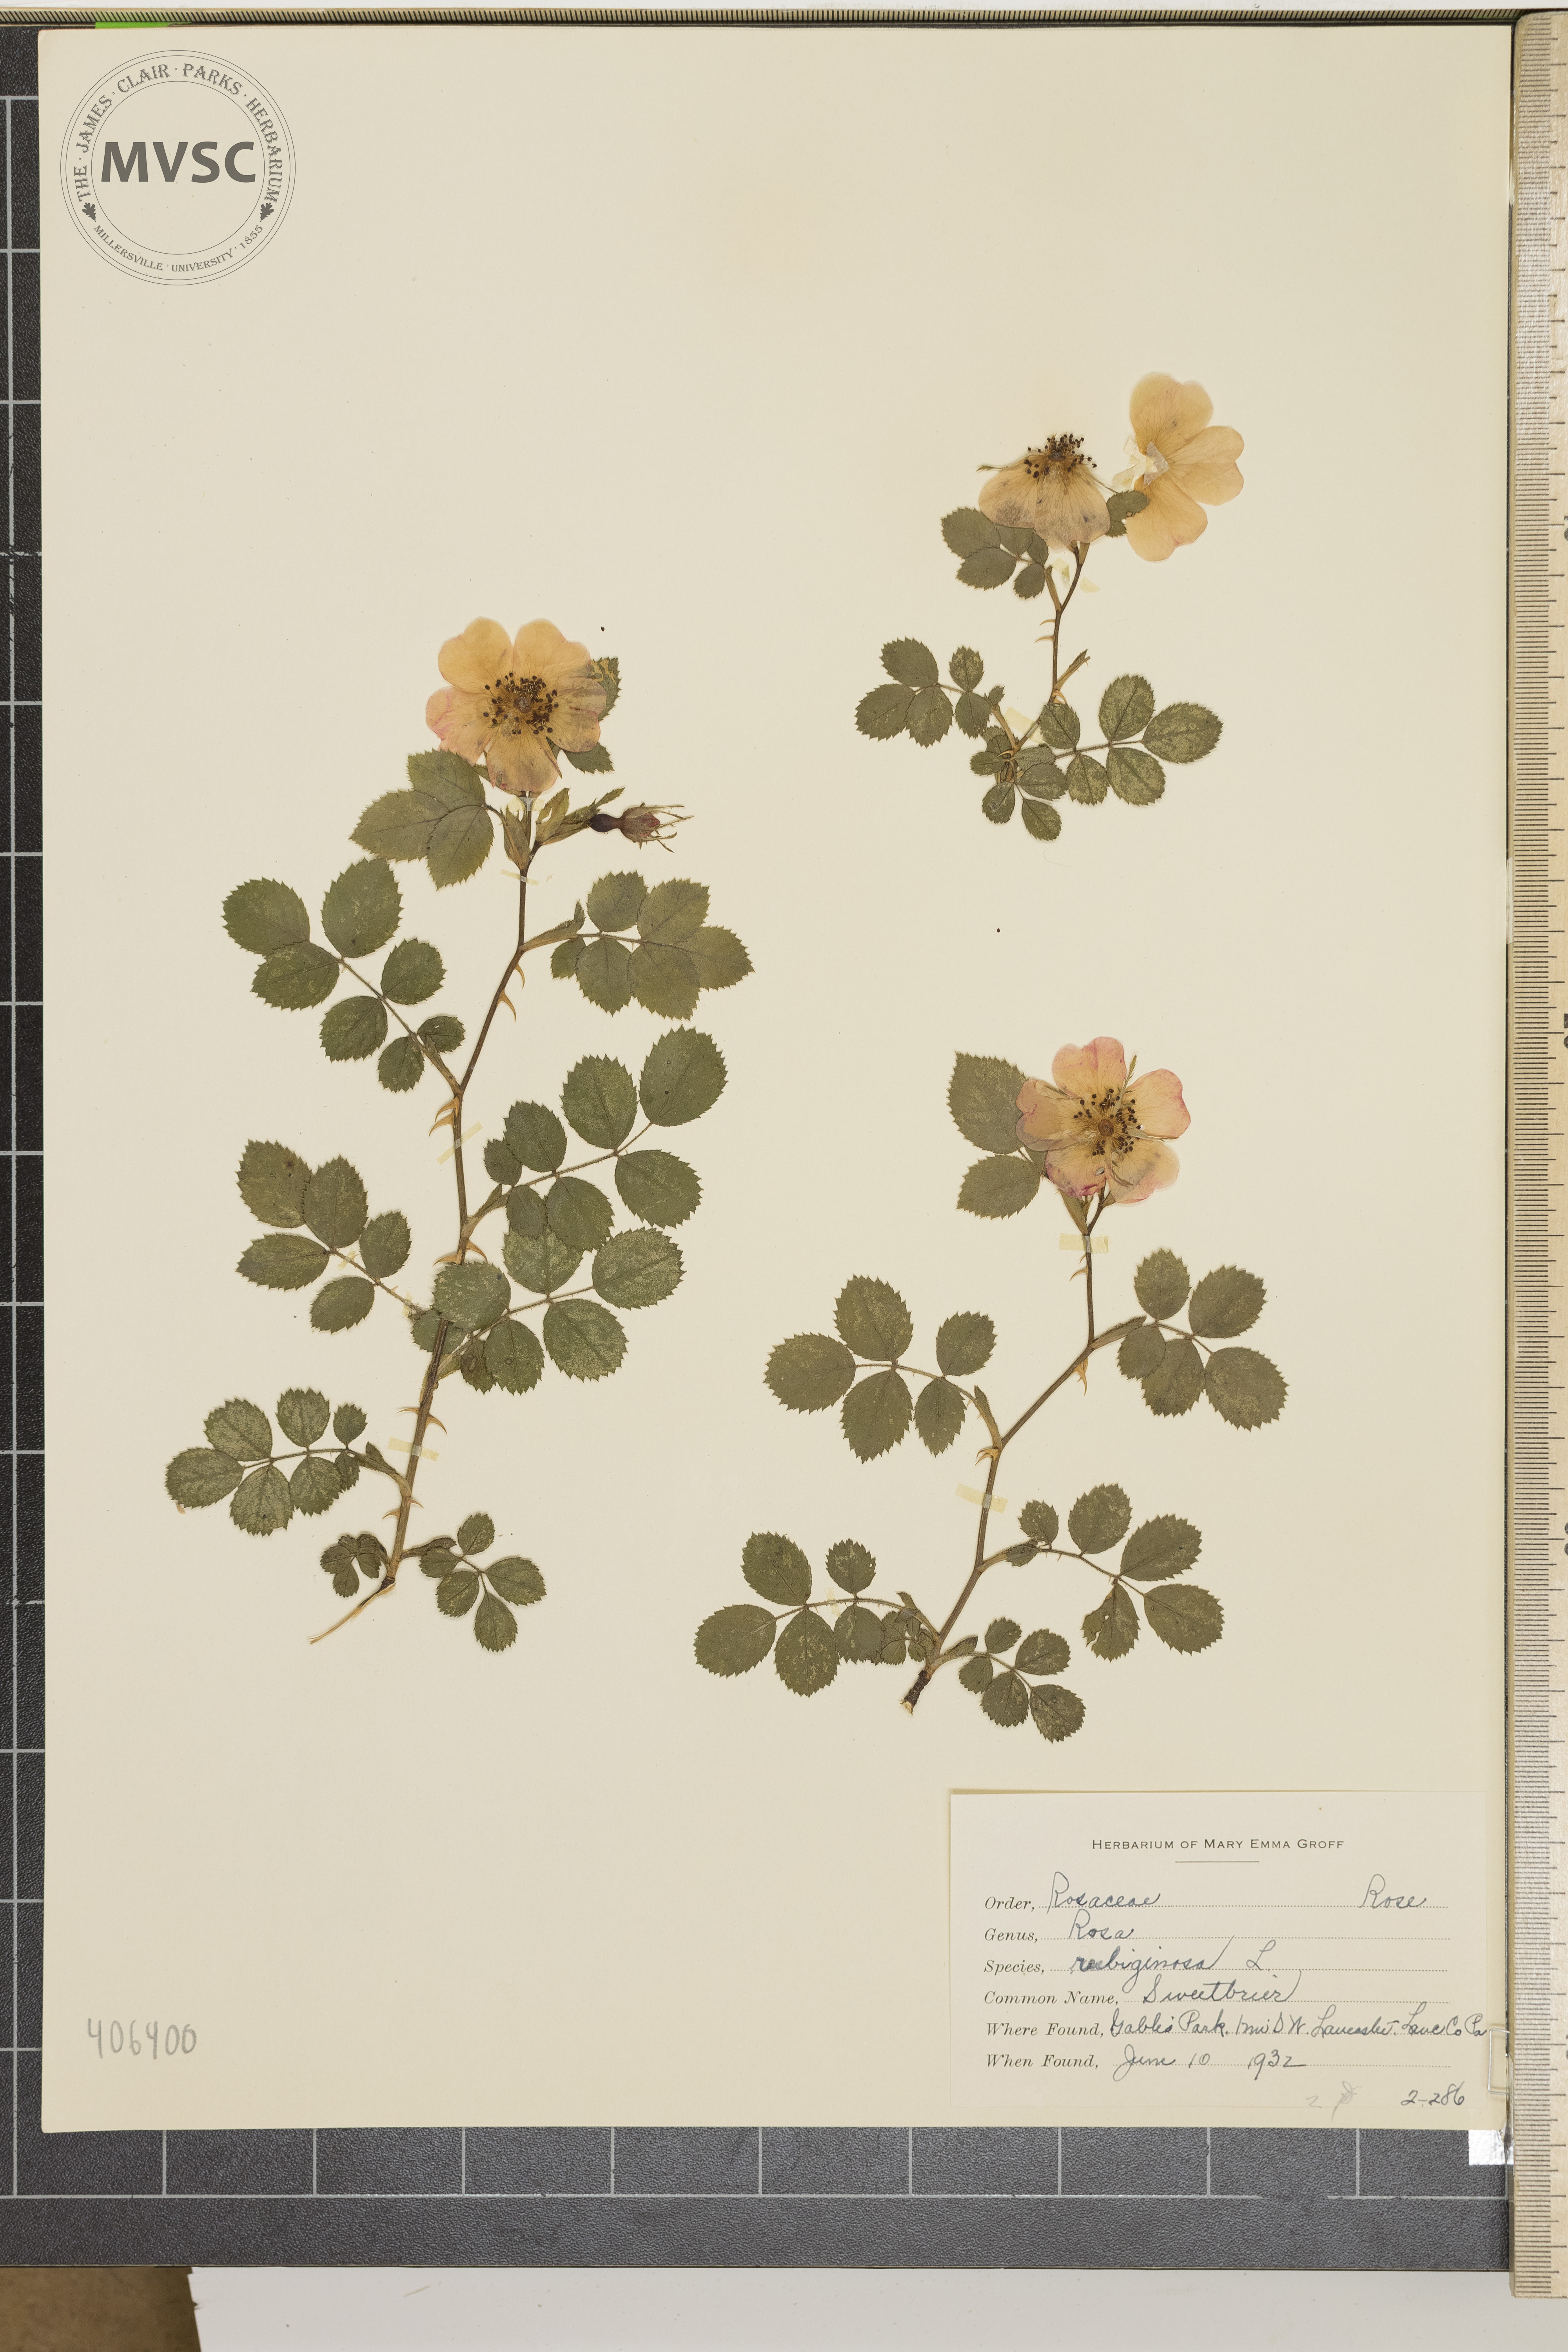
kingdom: Plantae
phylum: Tracheophyta
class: Magnoliopsida
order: Rosales
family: Rosaceae
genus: Rosa
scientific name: Rosa rubiginosa
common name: Sweetbrier
